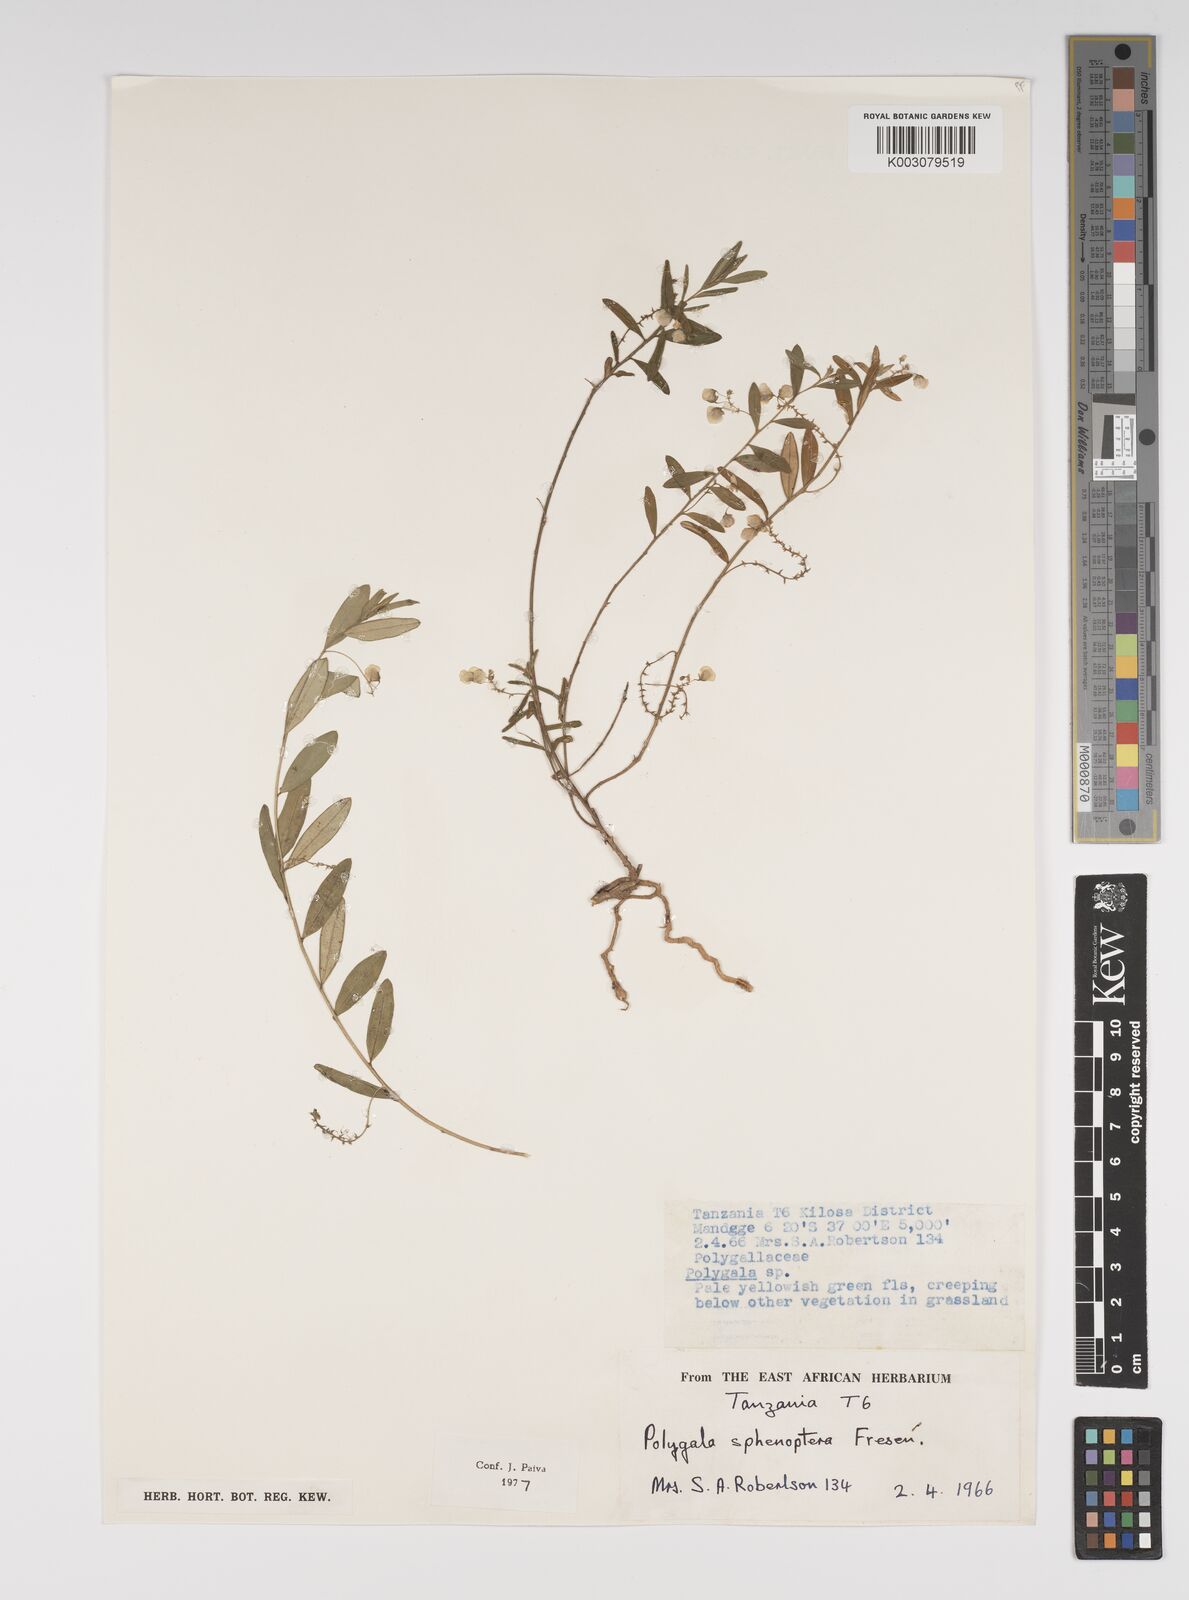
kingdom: Plantae
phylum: Tracheophyta
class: Magnoliopsida
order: Fabales
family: Polygalaceae
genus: Polygala
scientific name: Polygala sphenoptera
